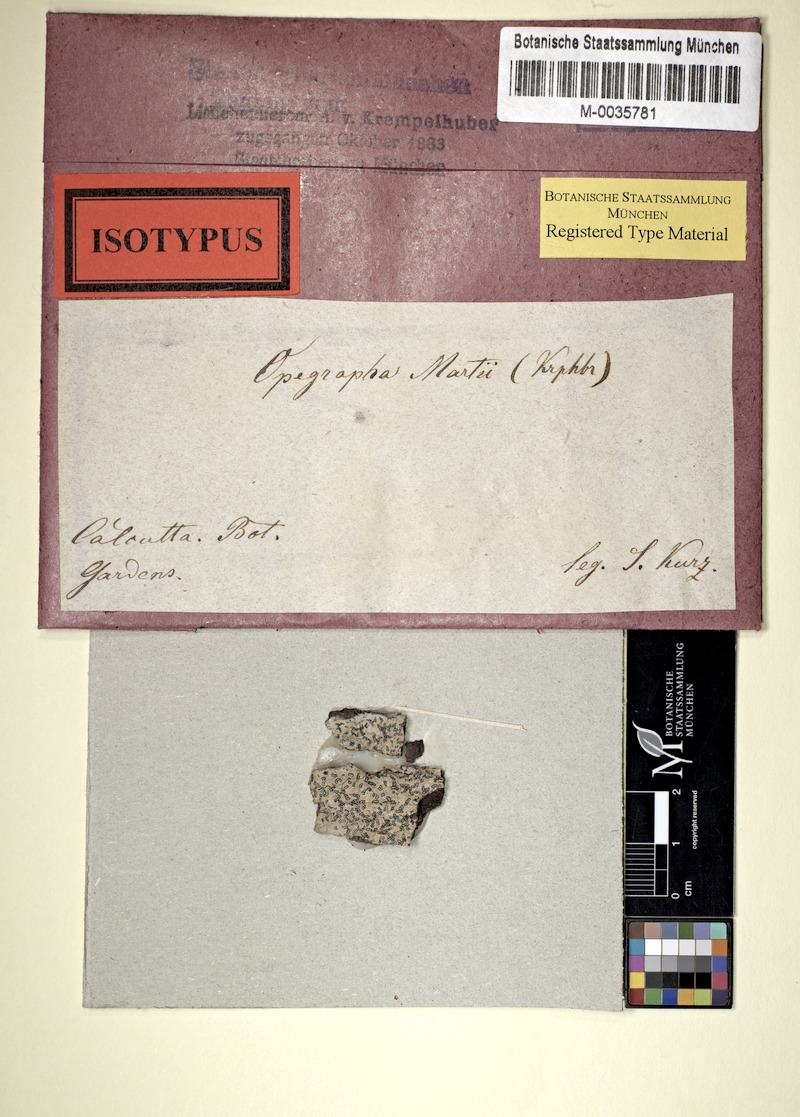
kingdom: Fungi
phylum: Ascomycota
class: Arthoniomycetes
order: Arthoniales
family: Lecanographaceae
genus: Lecanographa
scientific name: Lecanographa martii
